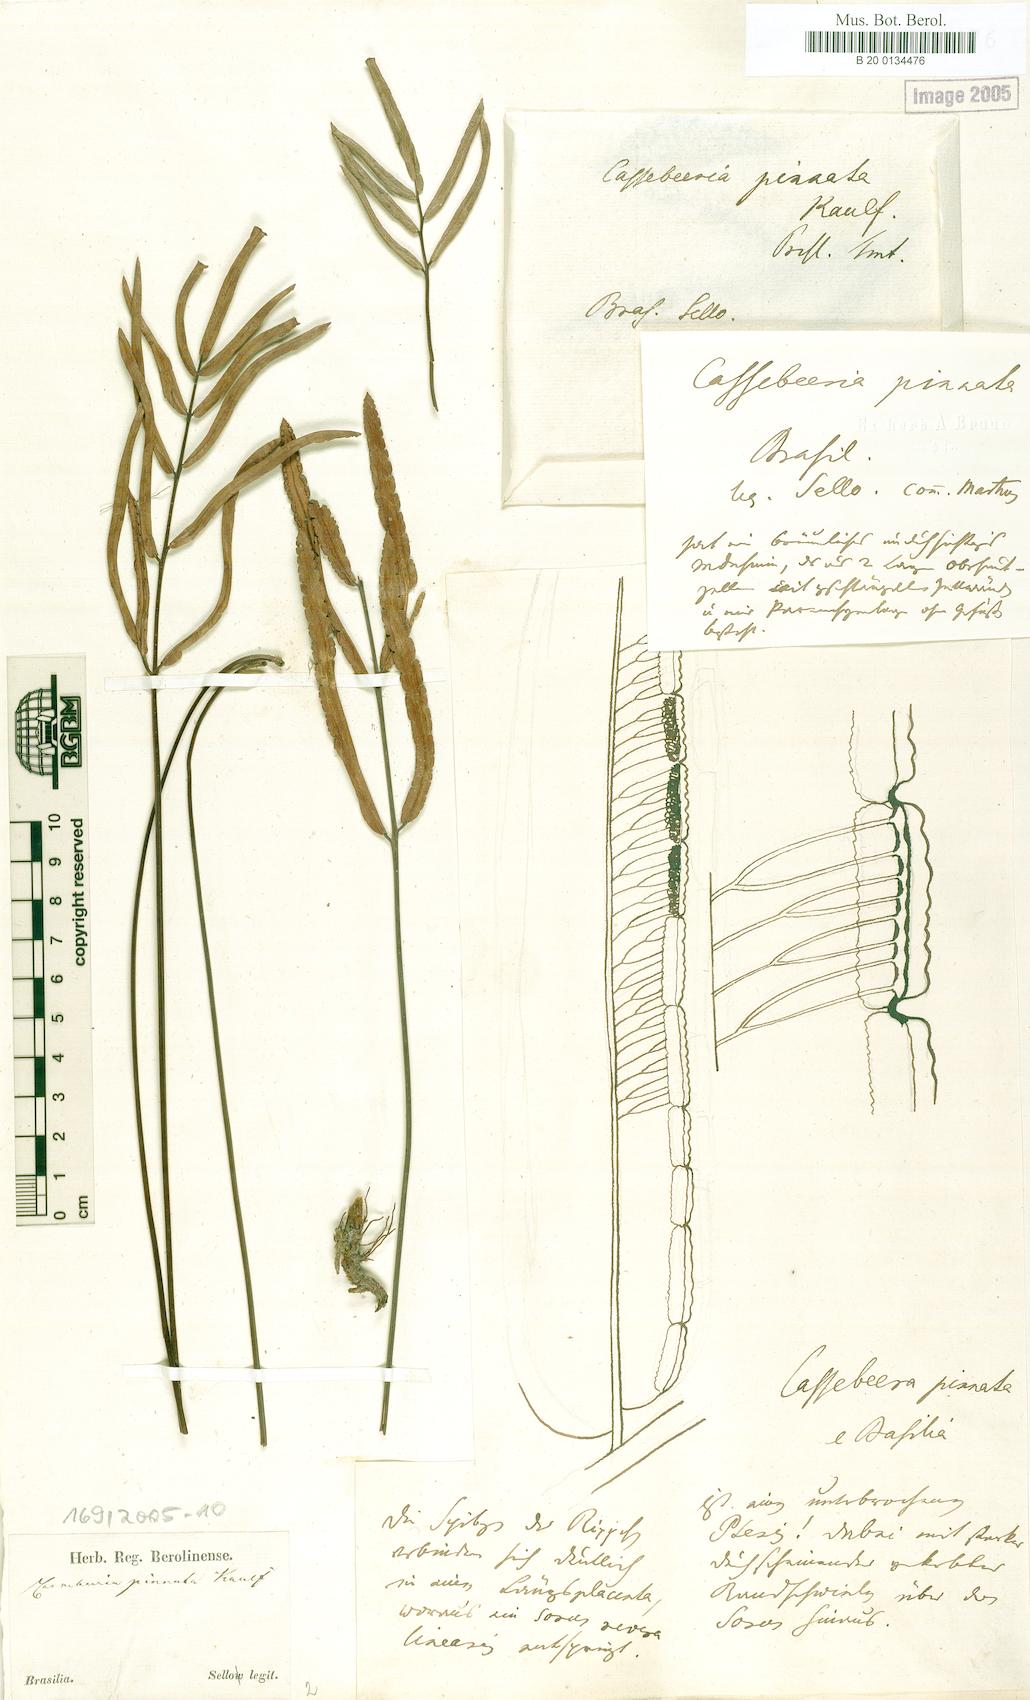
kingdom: Plantae
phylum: Tracheophyta
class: Polypodiopsida
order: Polypodiales
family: Pteridaceae
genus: Ormopteris
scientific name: Ormopteris pinnata
